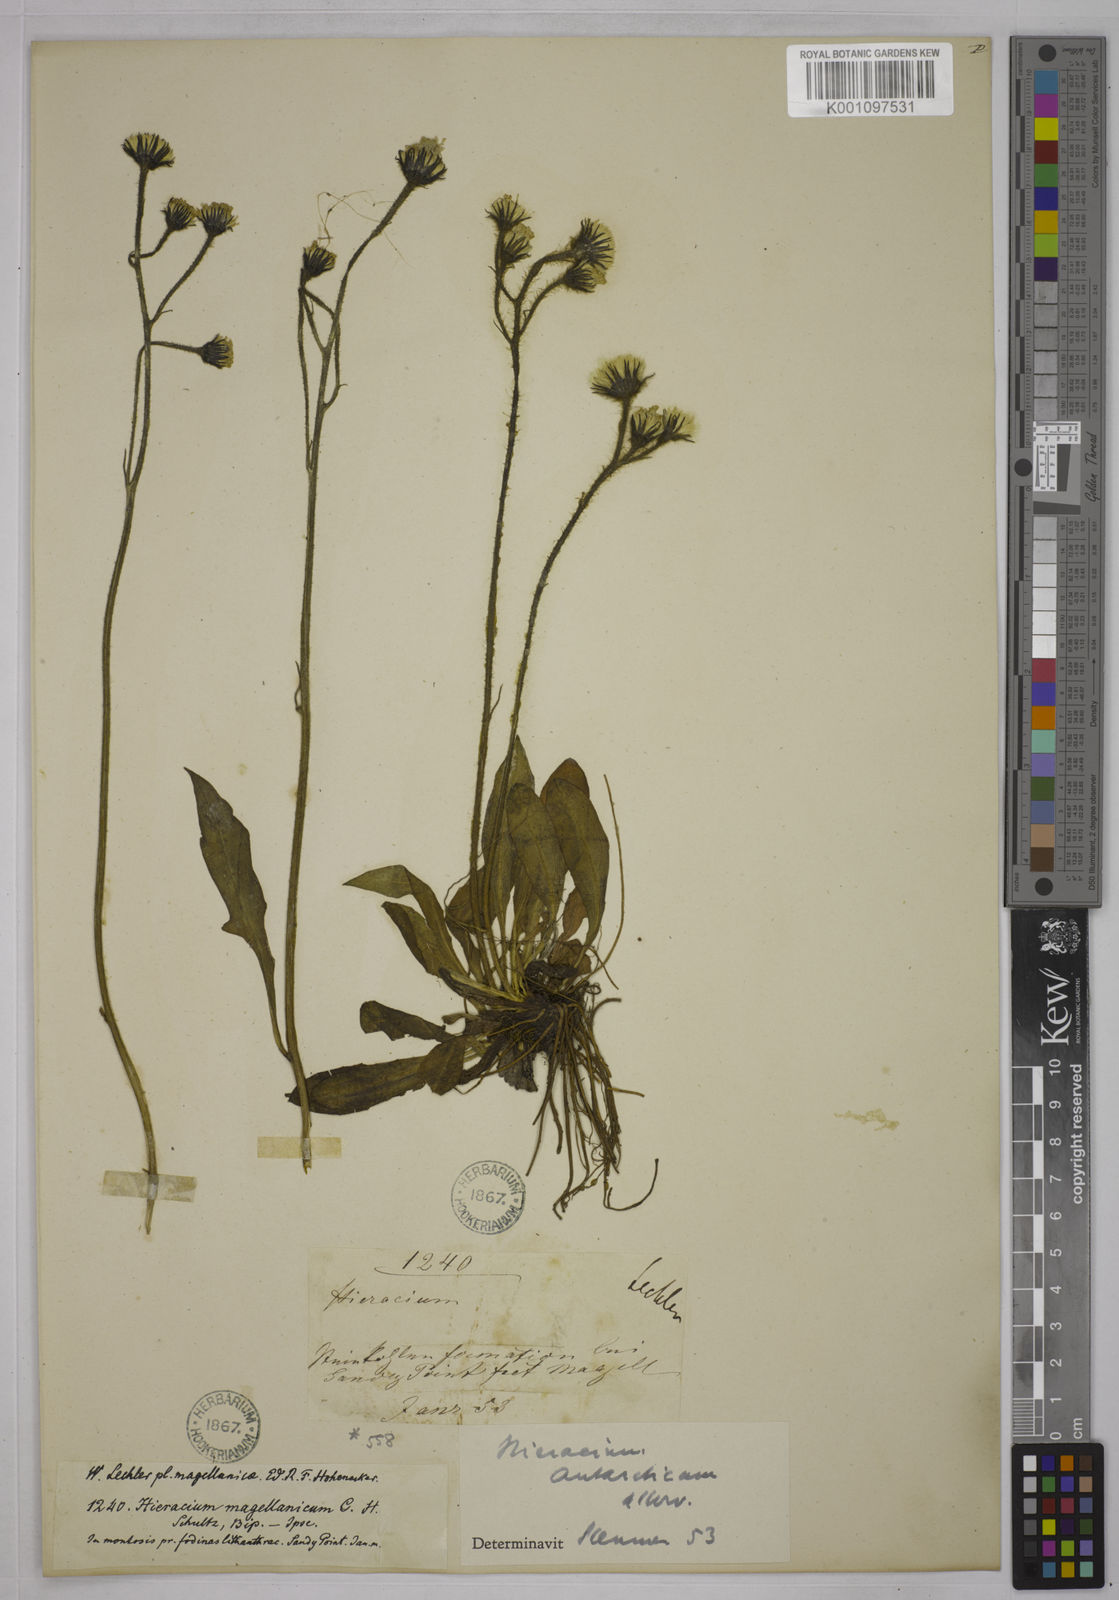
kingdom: Plantae
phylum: Tracheophyta
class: Magnoliopsida
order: Asterales
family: Asteraceae
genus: Hieracium
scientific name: Hieracium antarcticum
